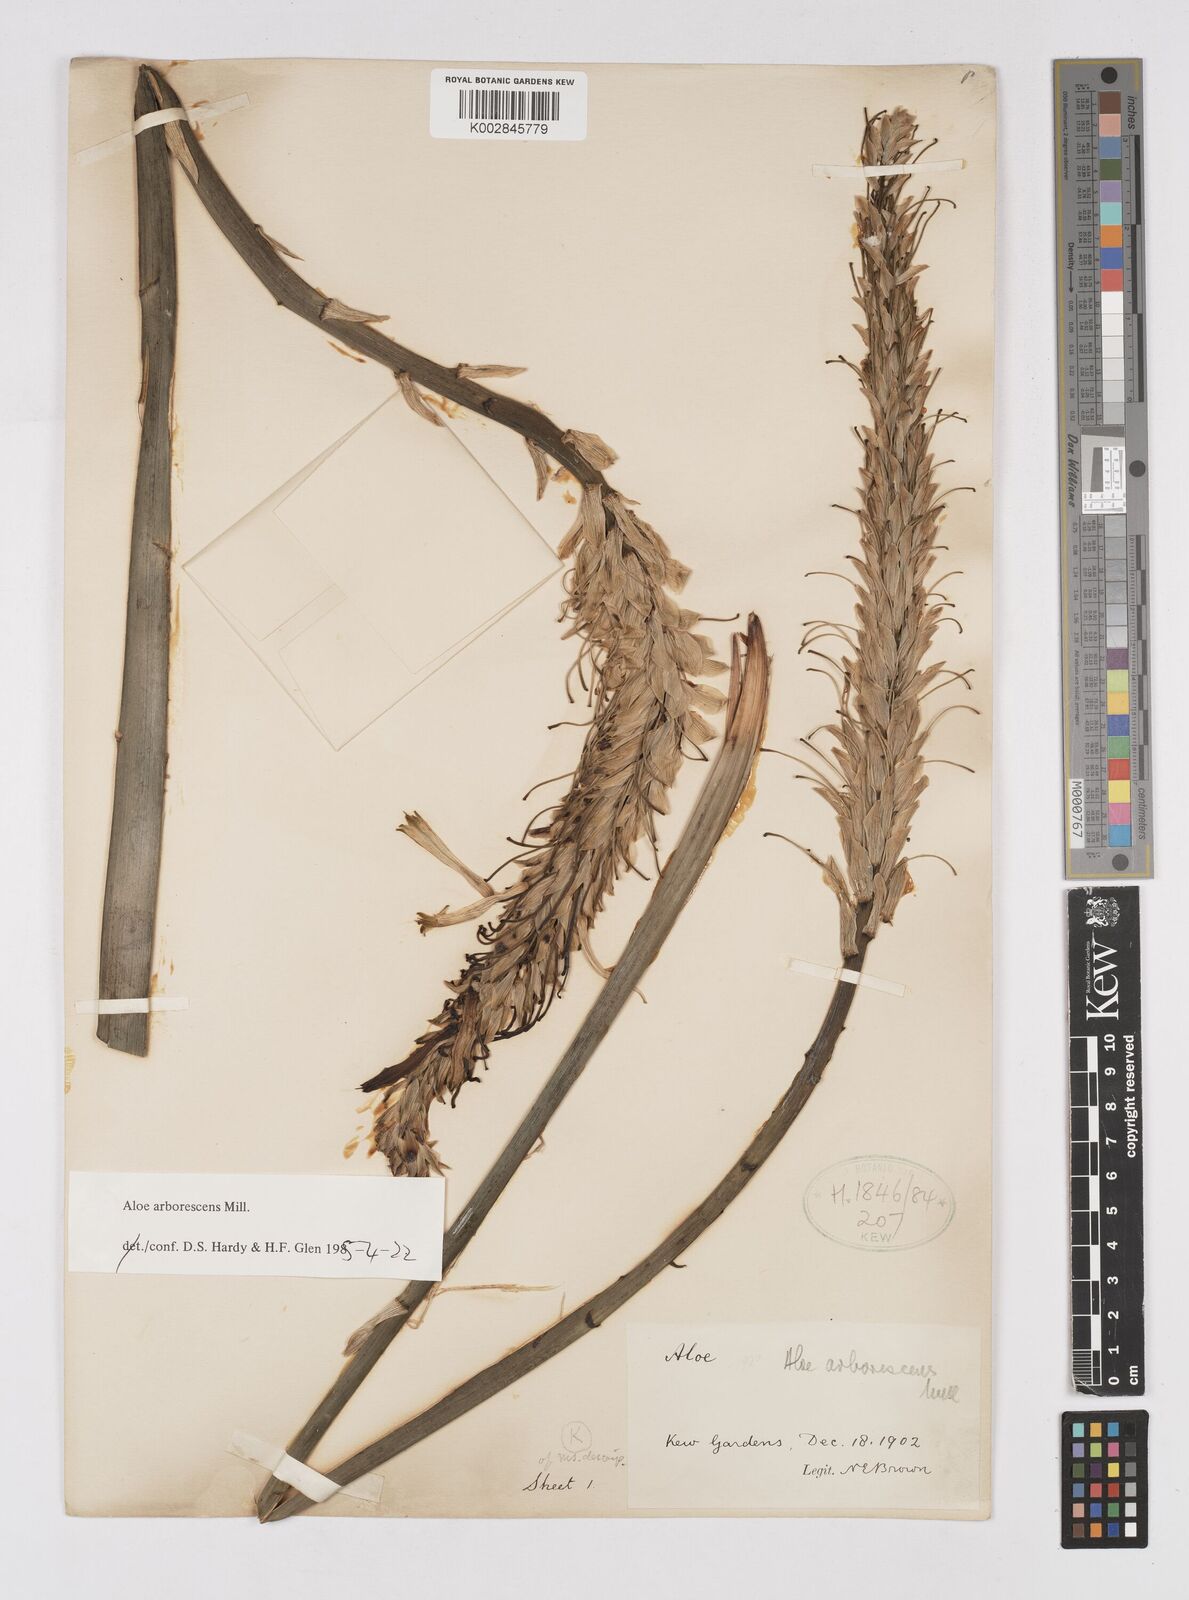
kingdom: Plantae
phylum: Tracheophyta
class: Liliopsida
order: Asparagales
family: Asphodelaceae
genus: Aloe
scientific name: Aloe vera
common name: Barbados aloe
